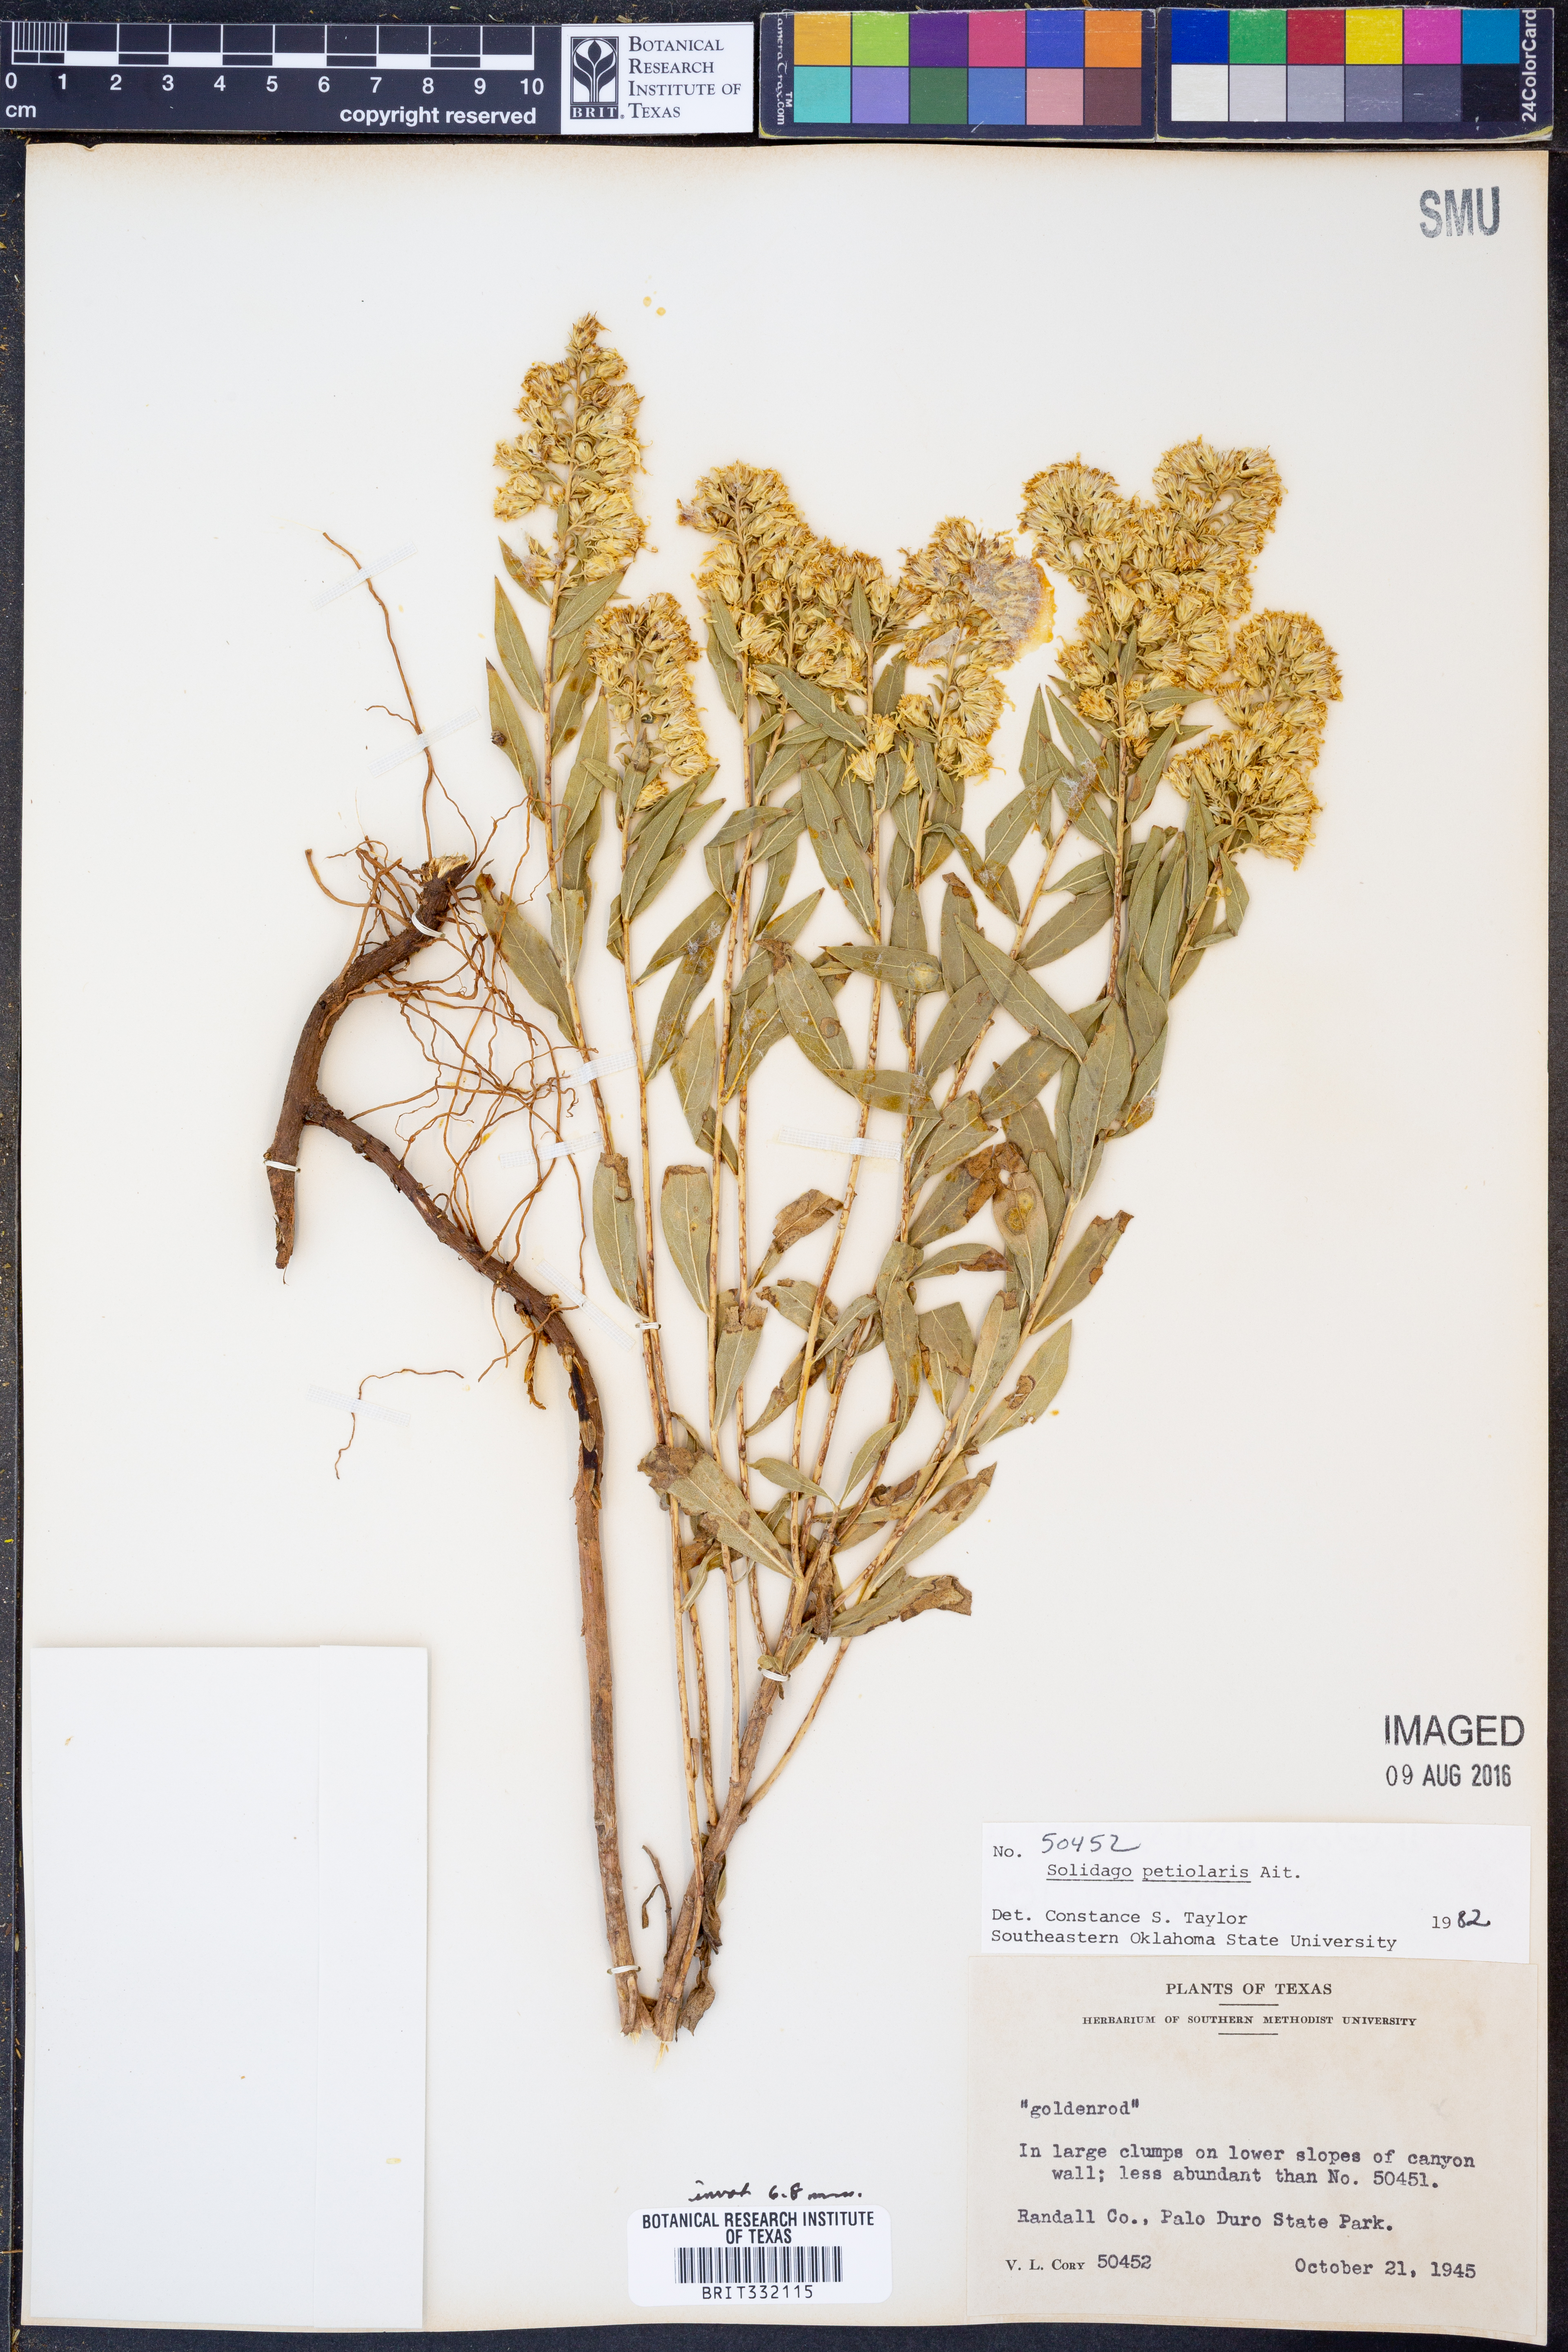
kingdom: Plantae
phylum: Tracheophyta
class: Magnoliopsida
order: Asterales
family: Asteraceae
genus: Solidago
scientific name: Solidago petiolaris
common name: Downy ragged goldenrod
